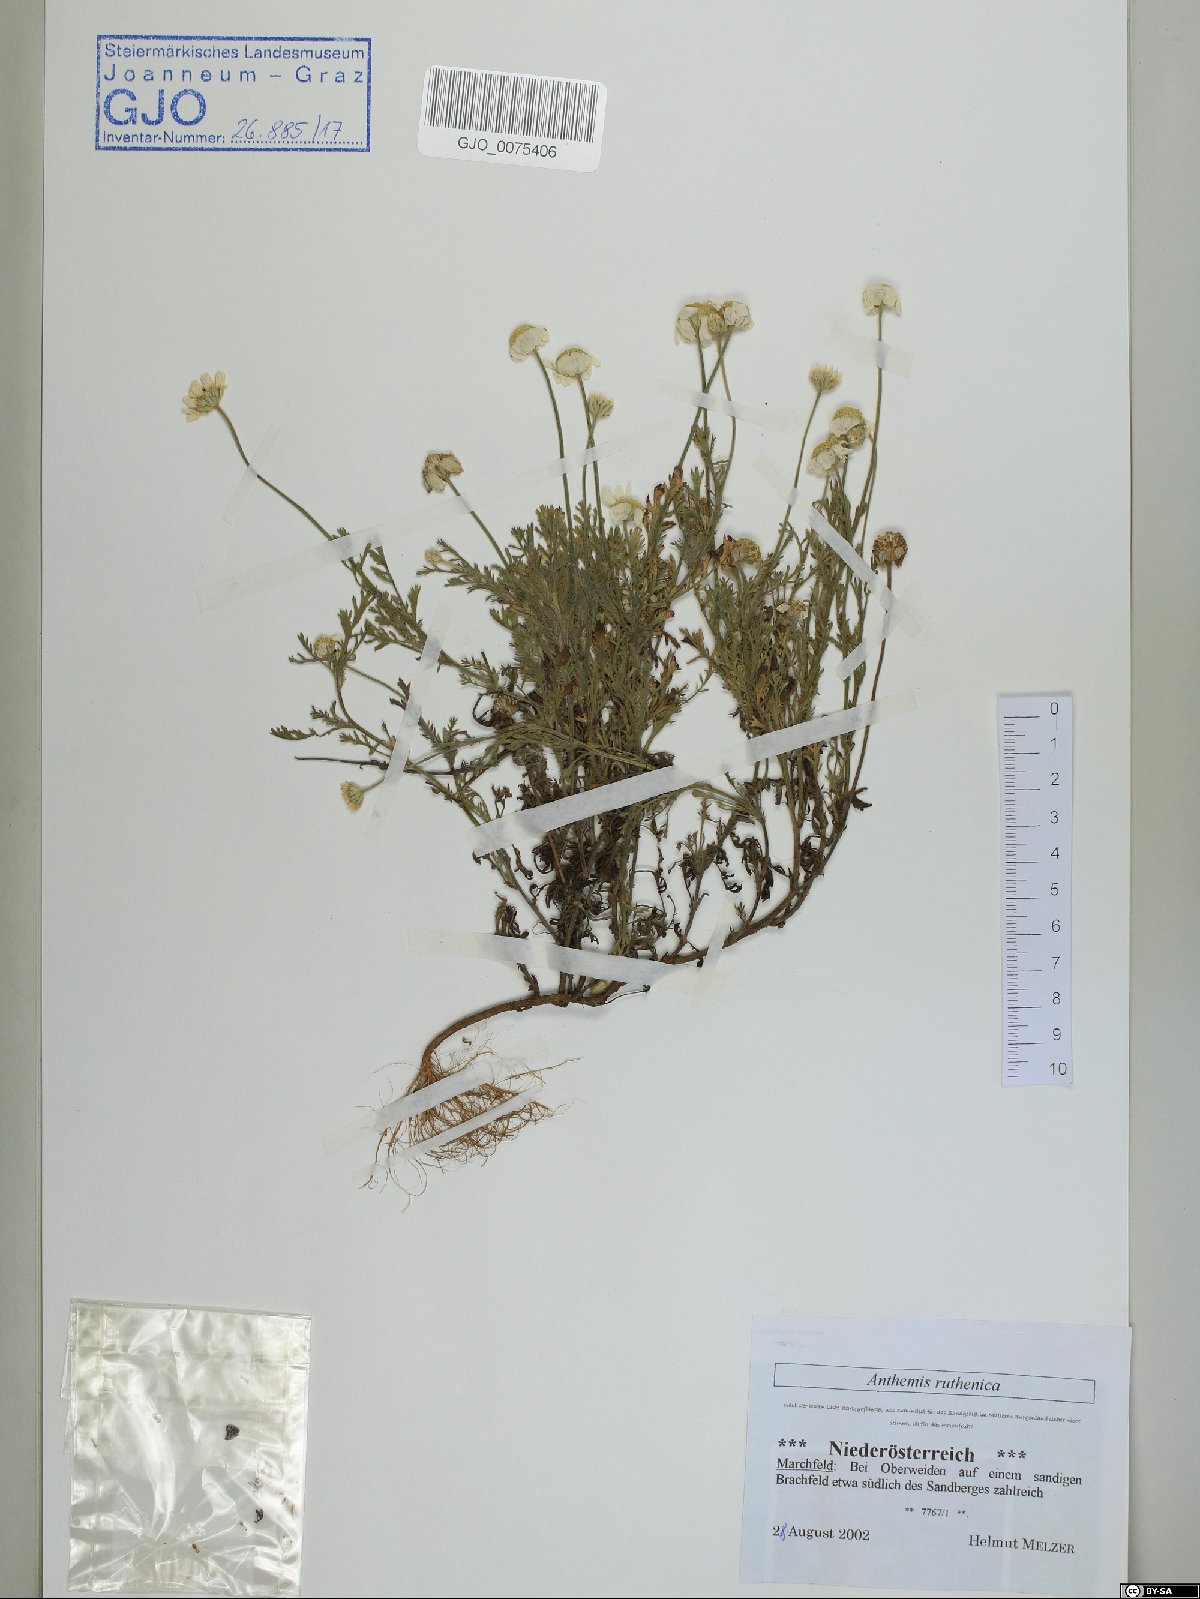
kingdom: Plantae
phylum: Tracheophyta
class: Magnoliopsida
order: Asterales
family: Asteraceae
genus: Anthemis
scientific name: Anthemis ruthenica
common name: Eastern chamomile
